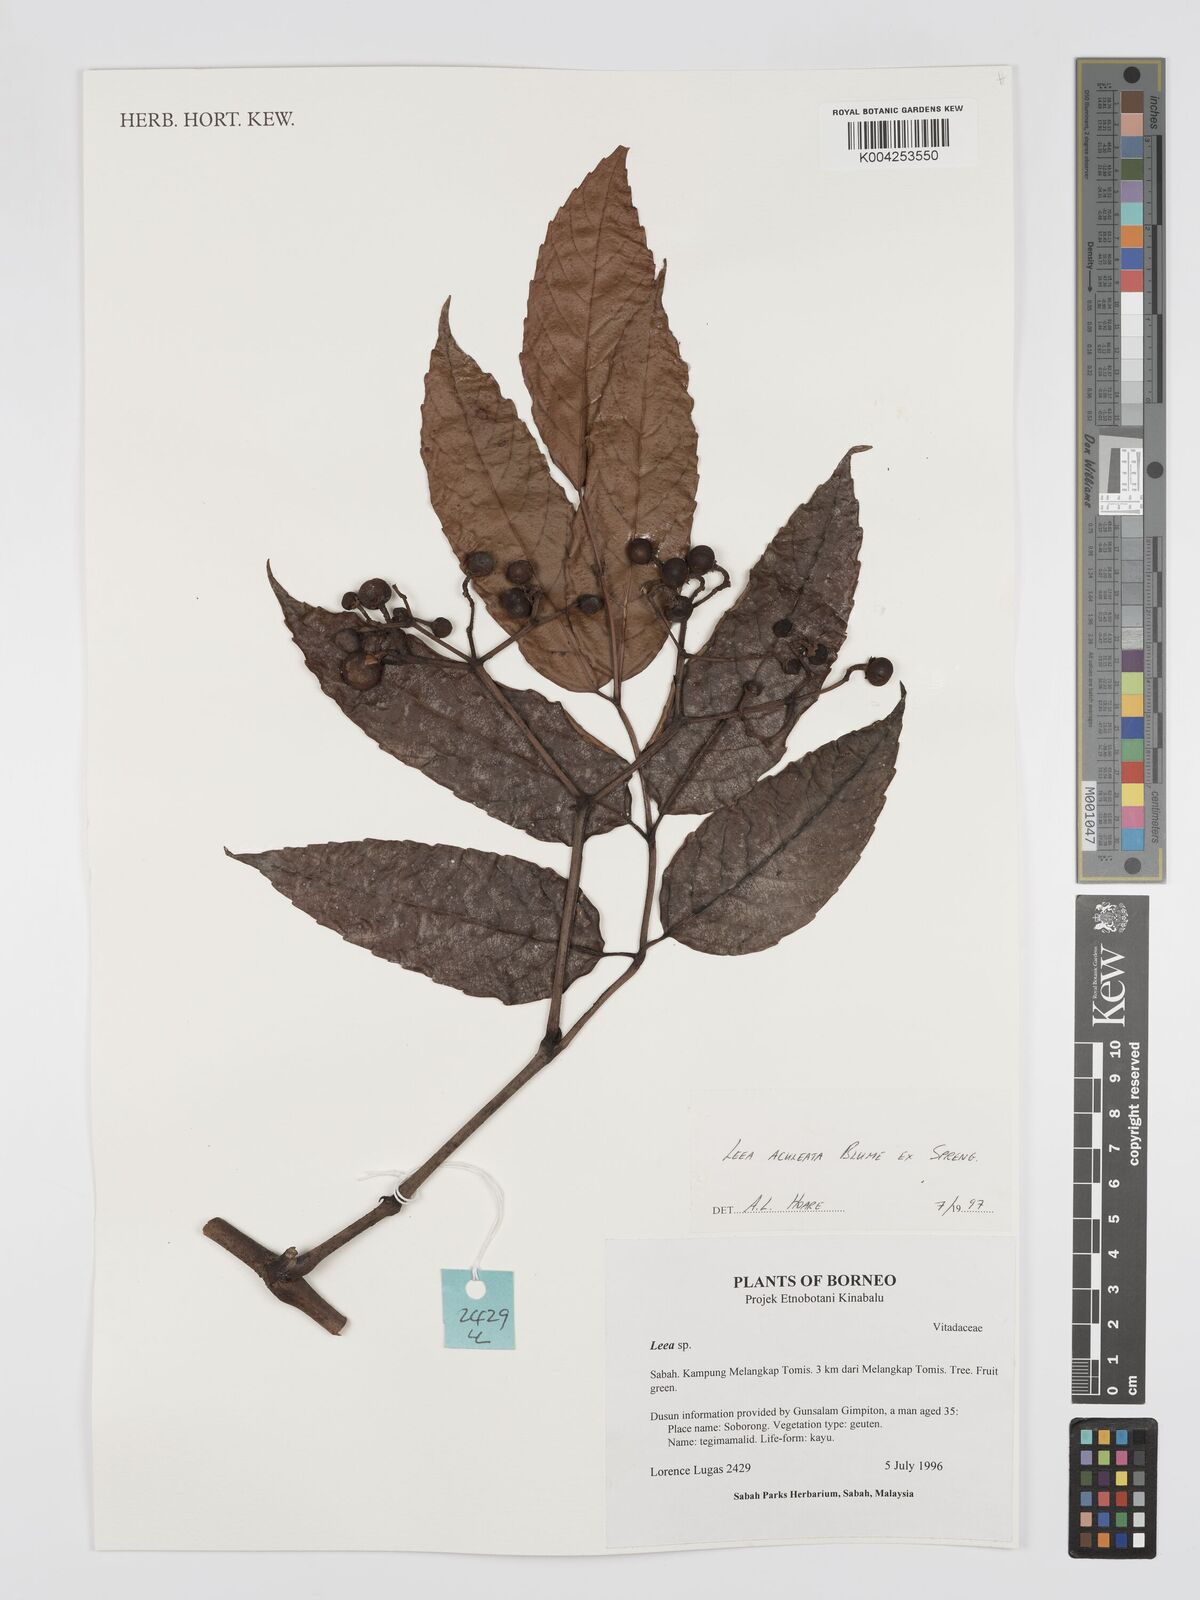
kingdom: Plantae
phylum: Tracheophyta
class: Magnoliopsida
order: Vitales
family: Vitaceae
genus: Leea
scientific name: Leea aculeata
